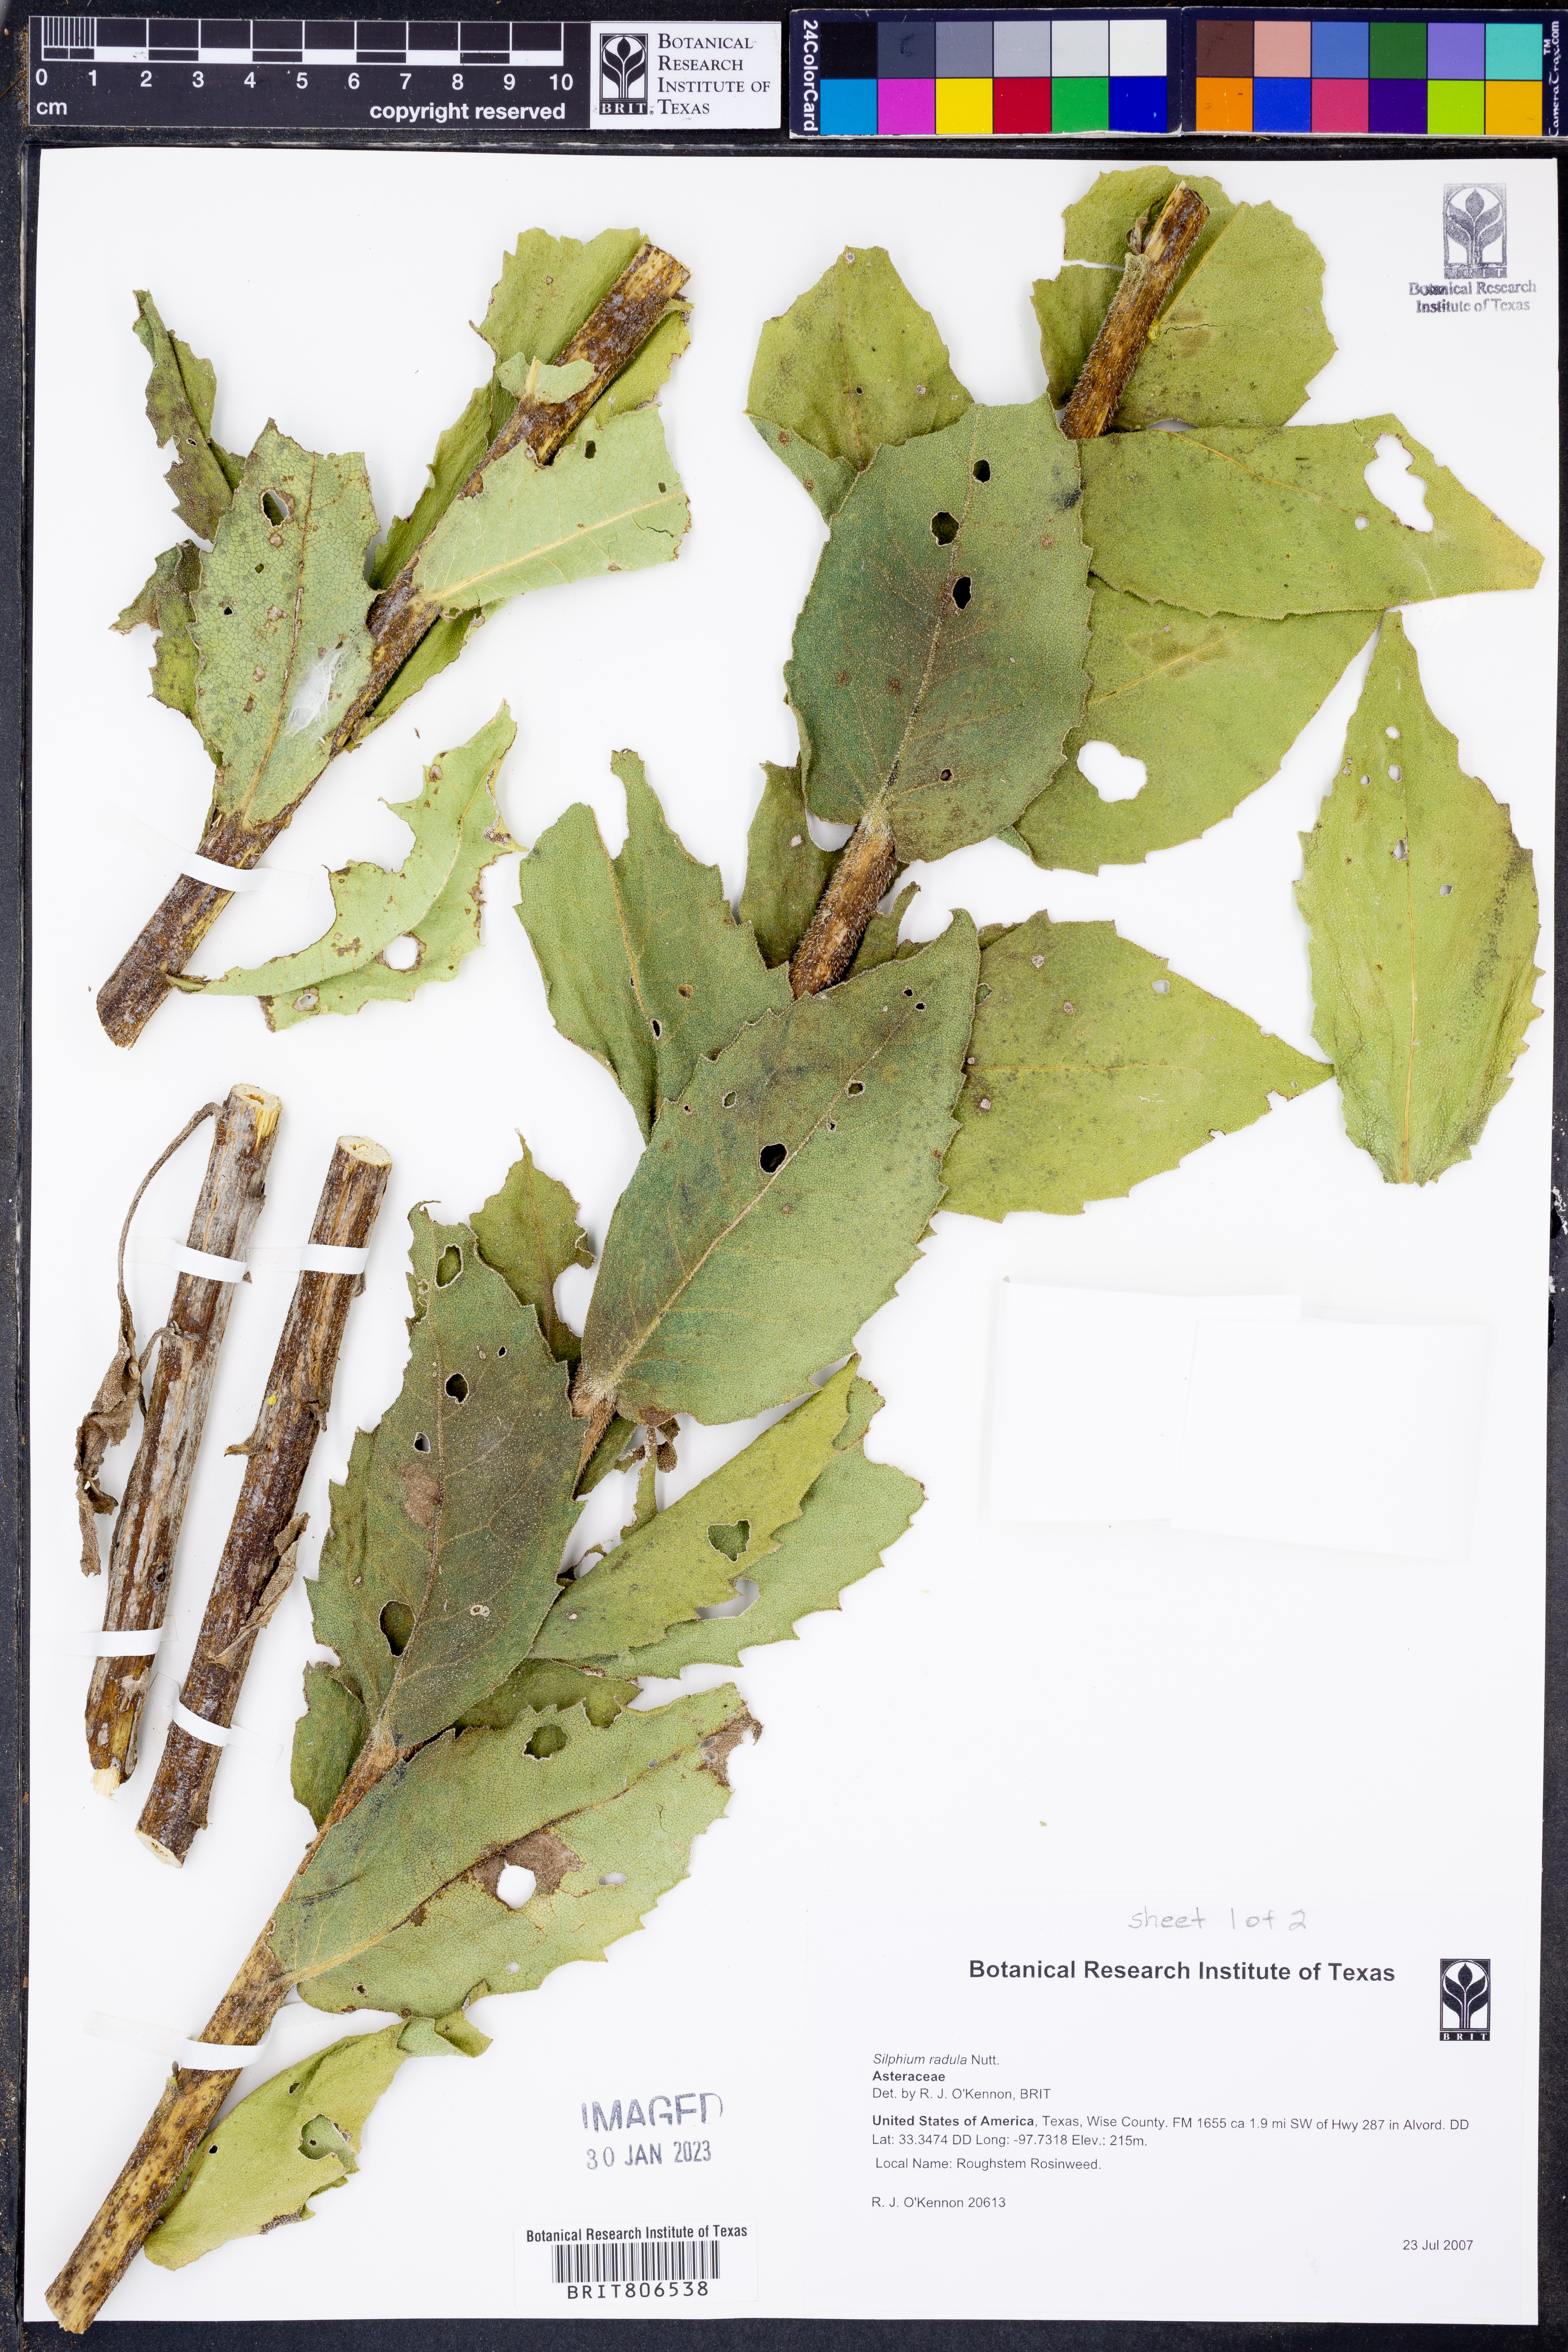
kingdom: Plantae
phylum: Tracheophyta
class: Magnoliopsida
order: Asterales
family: Asteraceae
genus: Silphium
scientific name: Silphium radula
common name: Roughleaf rosinweed
